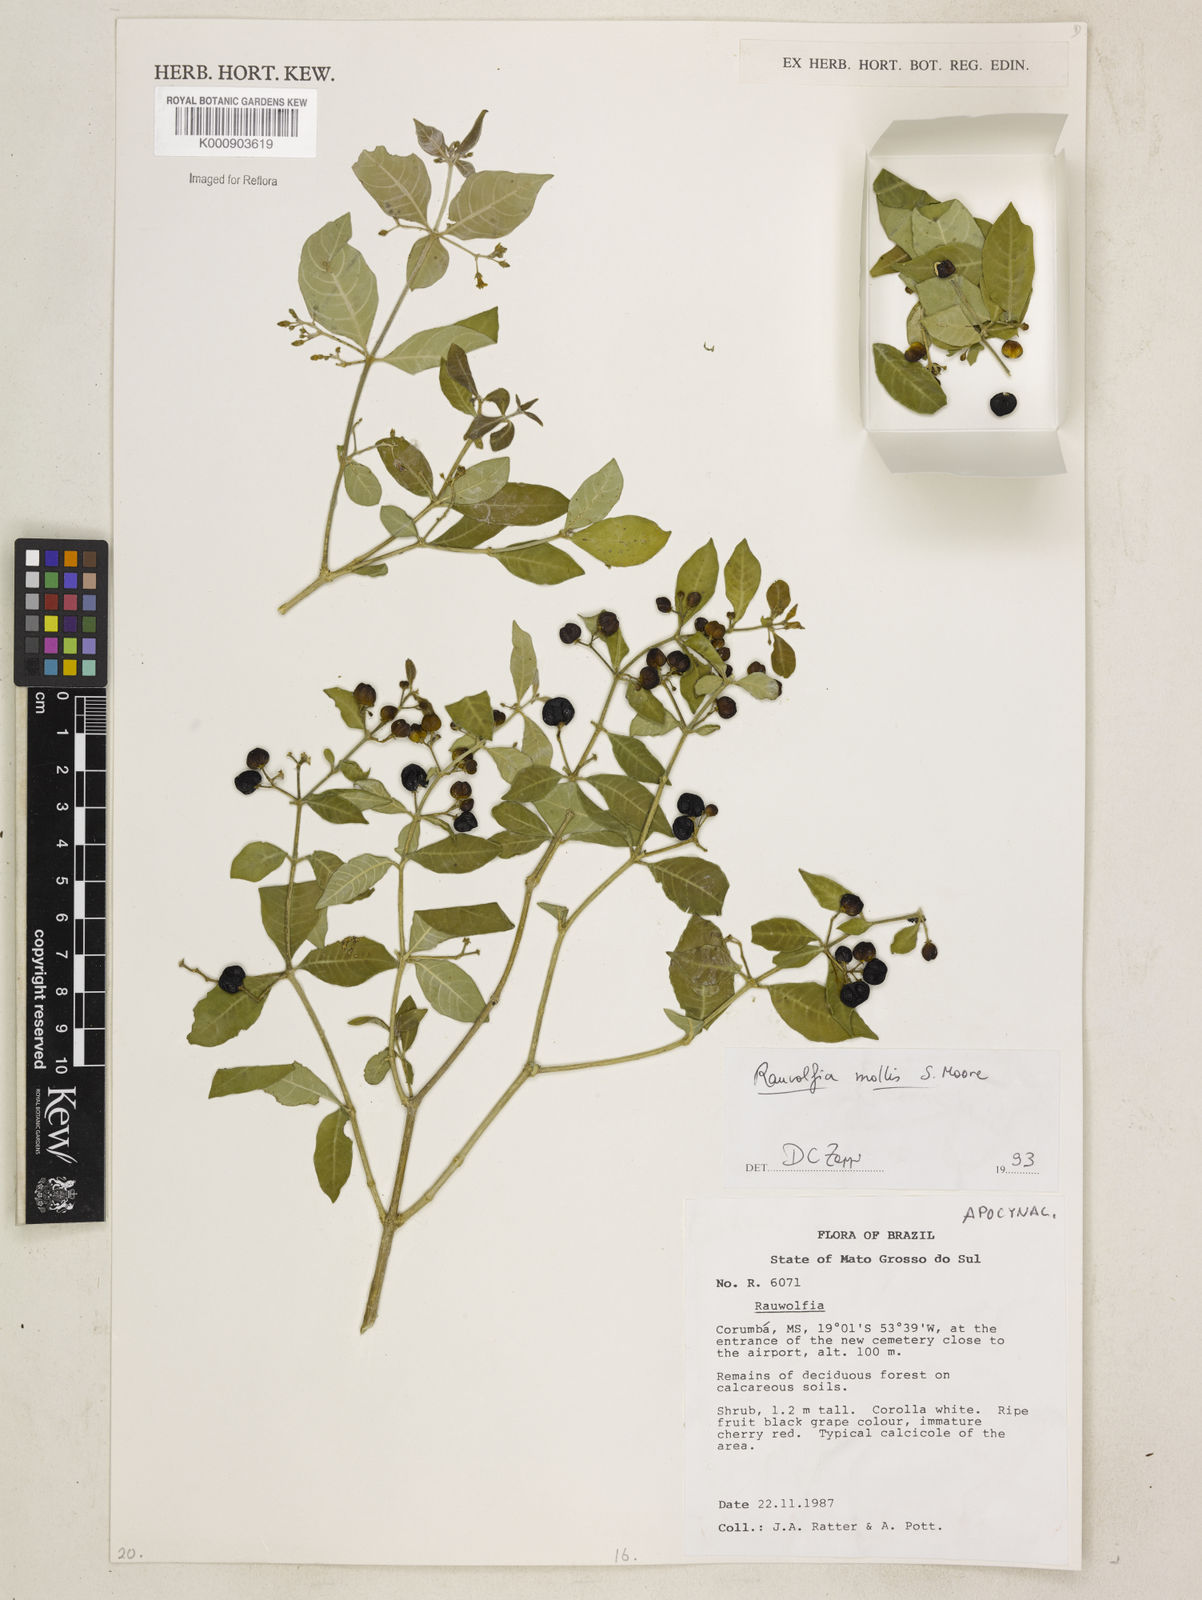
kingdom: Plantae
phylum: Tracheophyta
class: Magnoliopsida
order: Gentianales
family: Apocynaceae
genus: Rauvolfia
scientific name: Rauvolfia ligustrina
